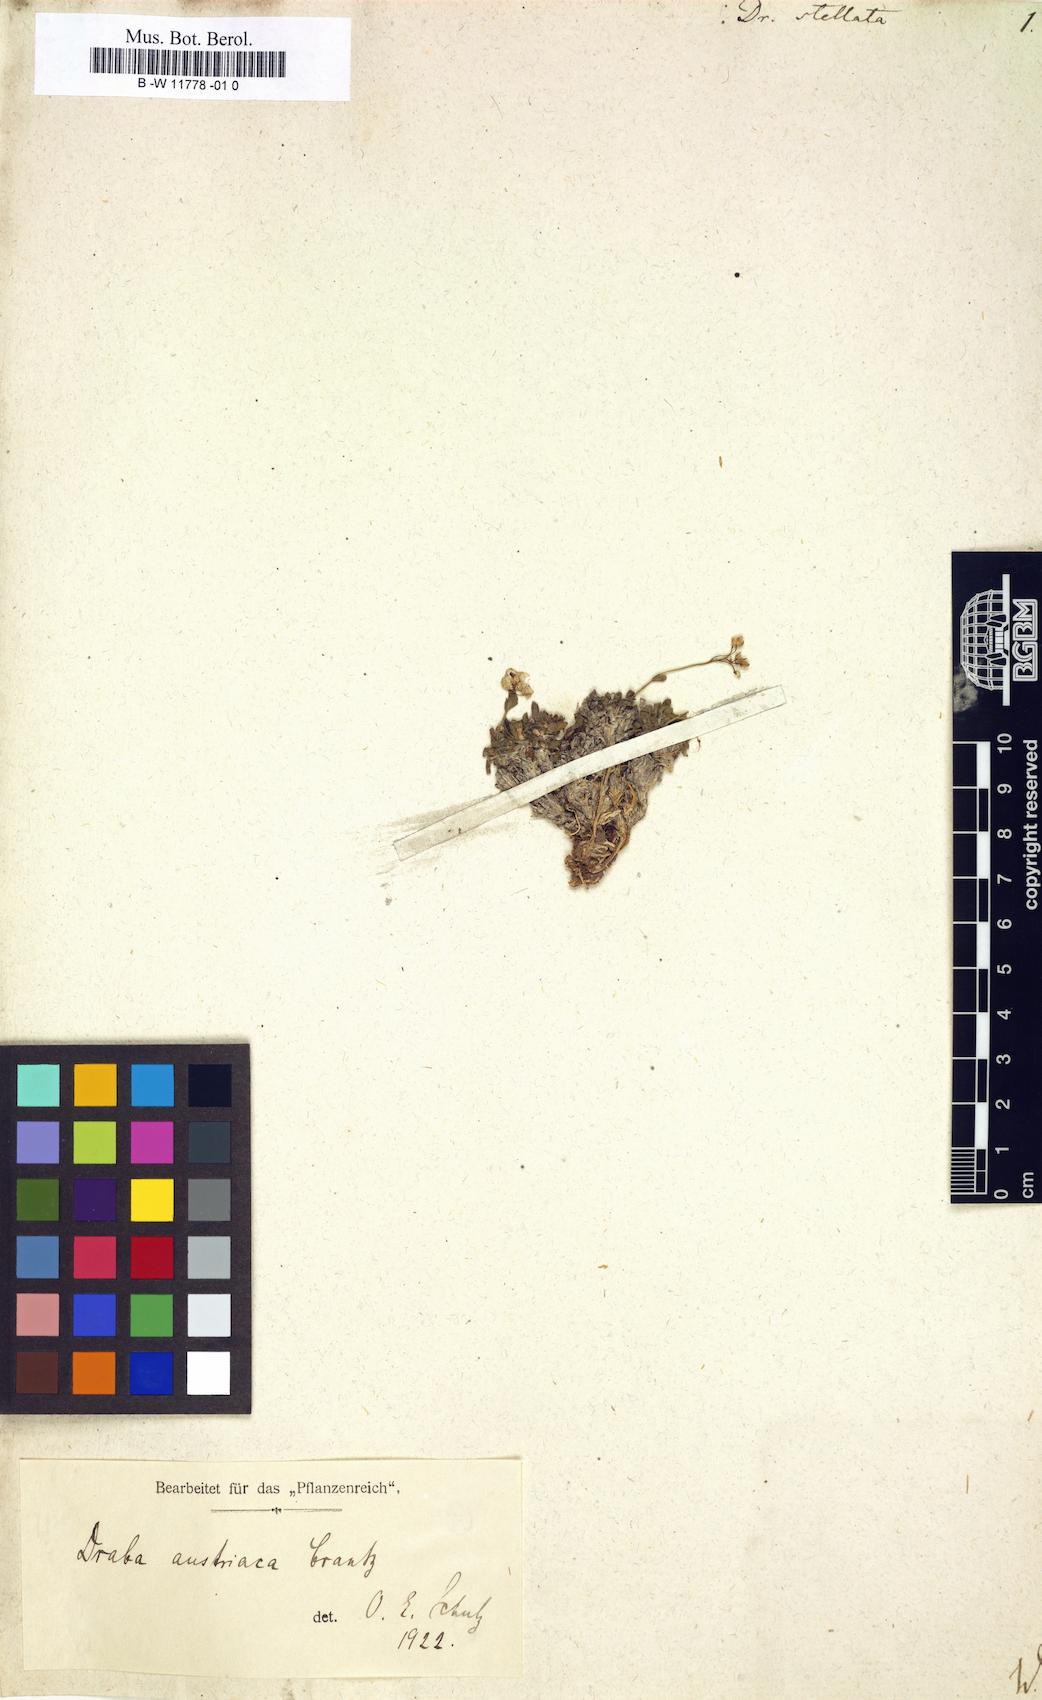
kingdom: Plantae
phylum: Tracheophyta
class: Magnoliopsida
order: Brassicales
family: Brassicaceae
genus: Draba
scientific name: Draba stellata
